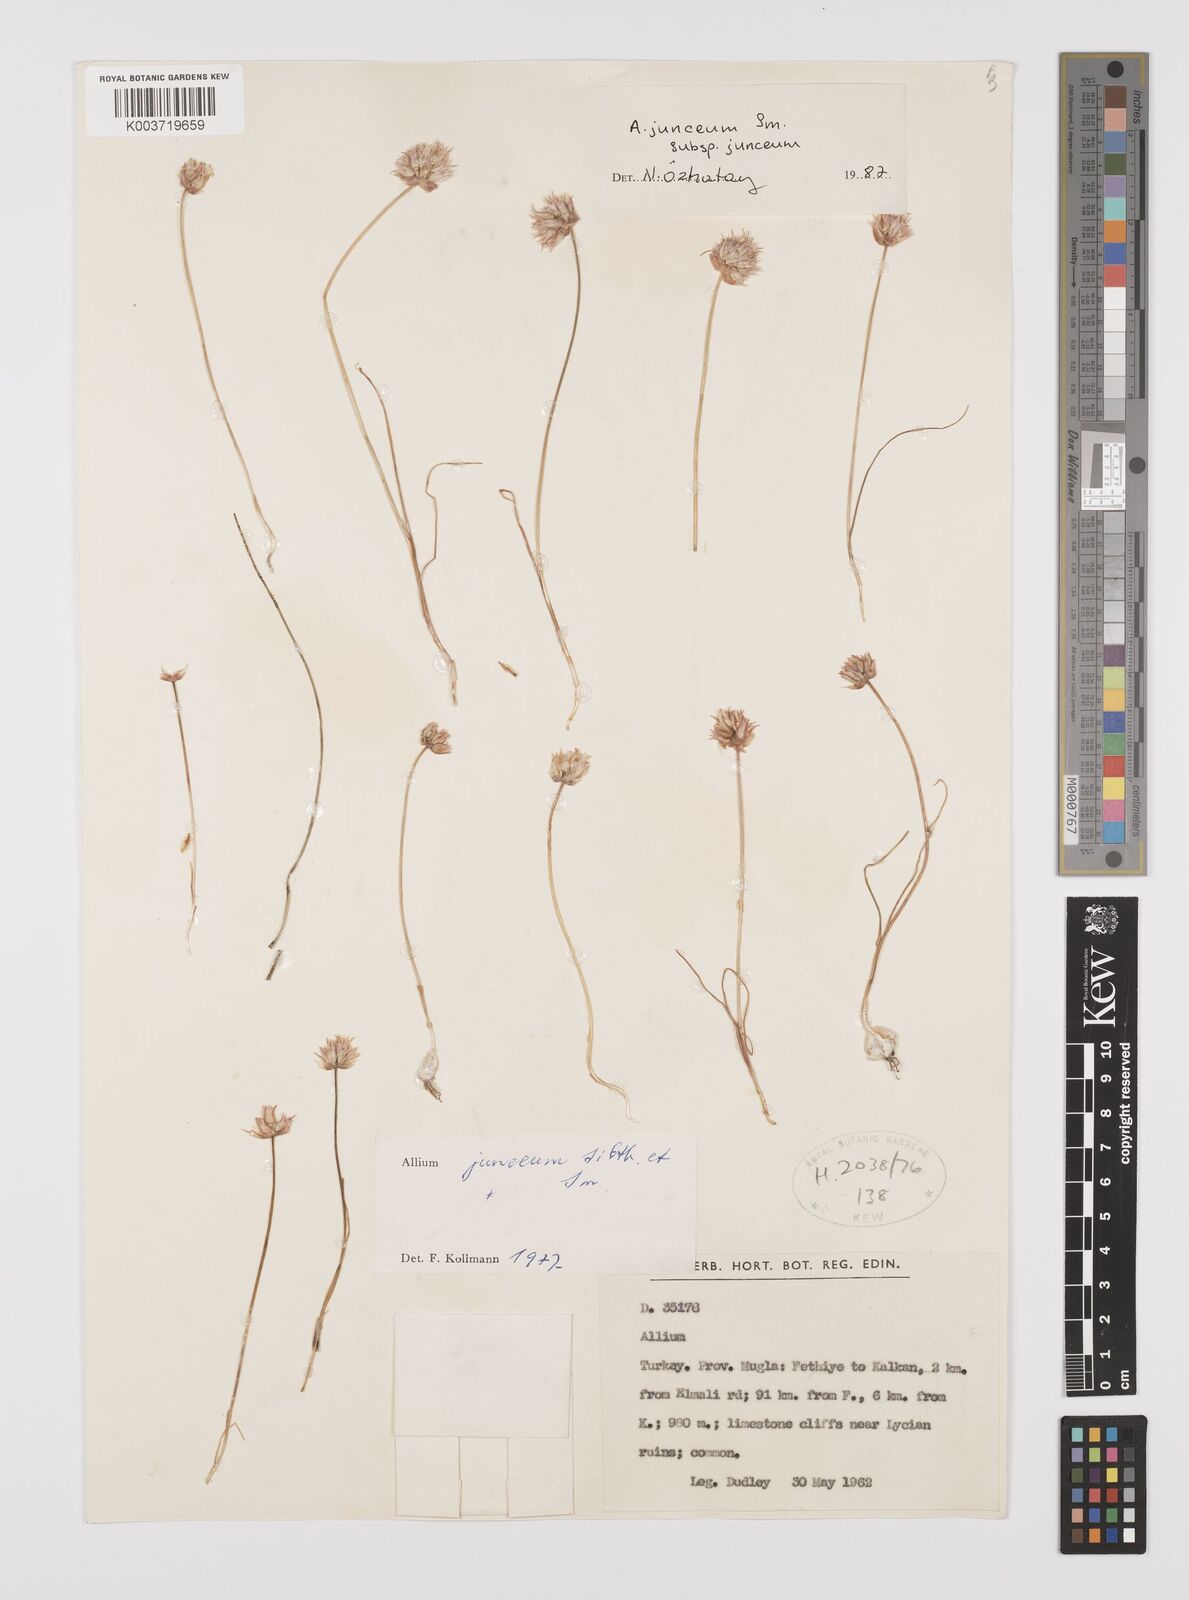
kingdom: Plantae
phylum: Tracheophyta
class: Liliopsida
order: Asparagales
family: Amaryllidaceae
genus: Allium
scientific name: Allium junceum
